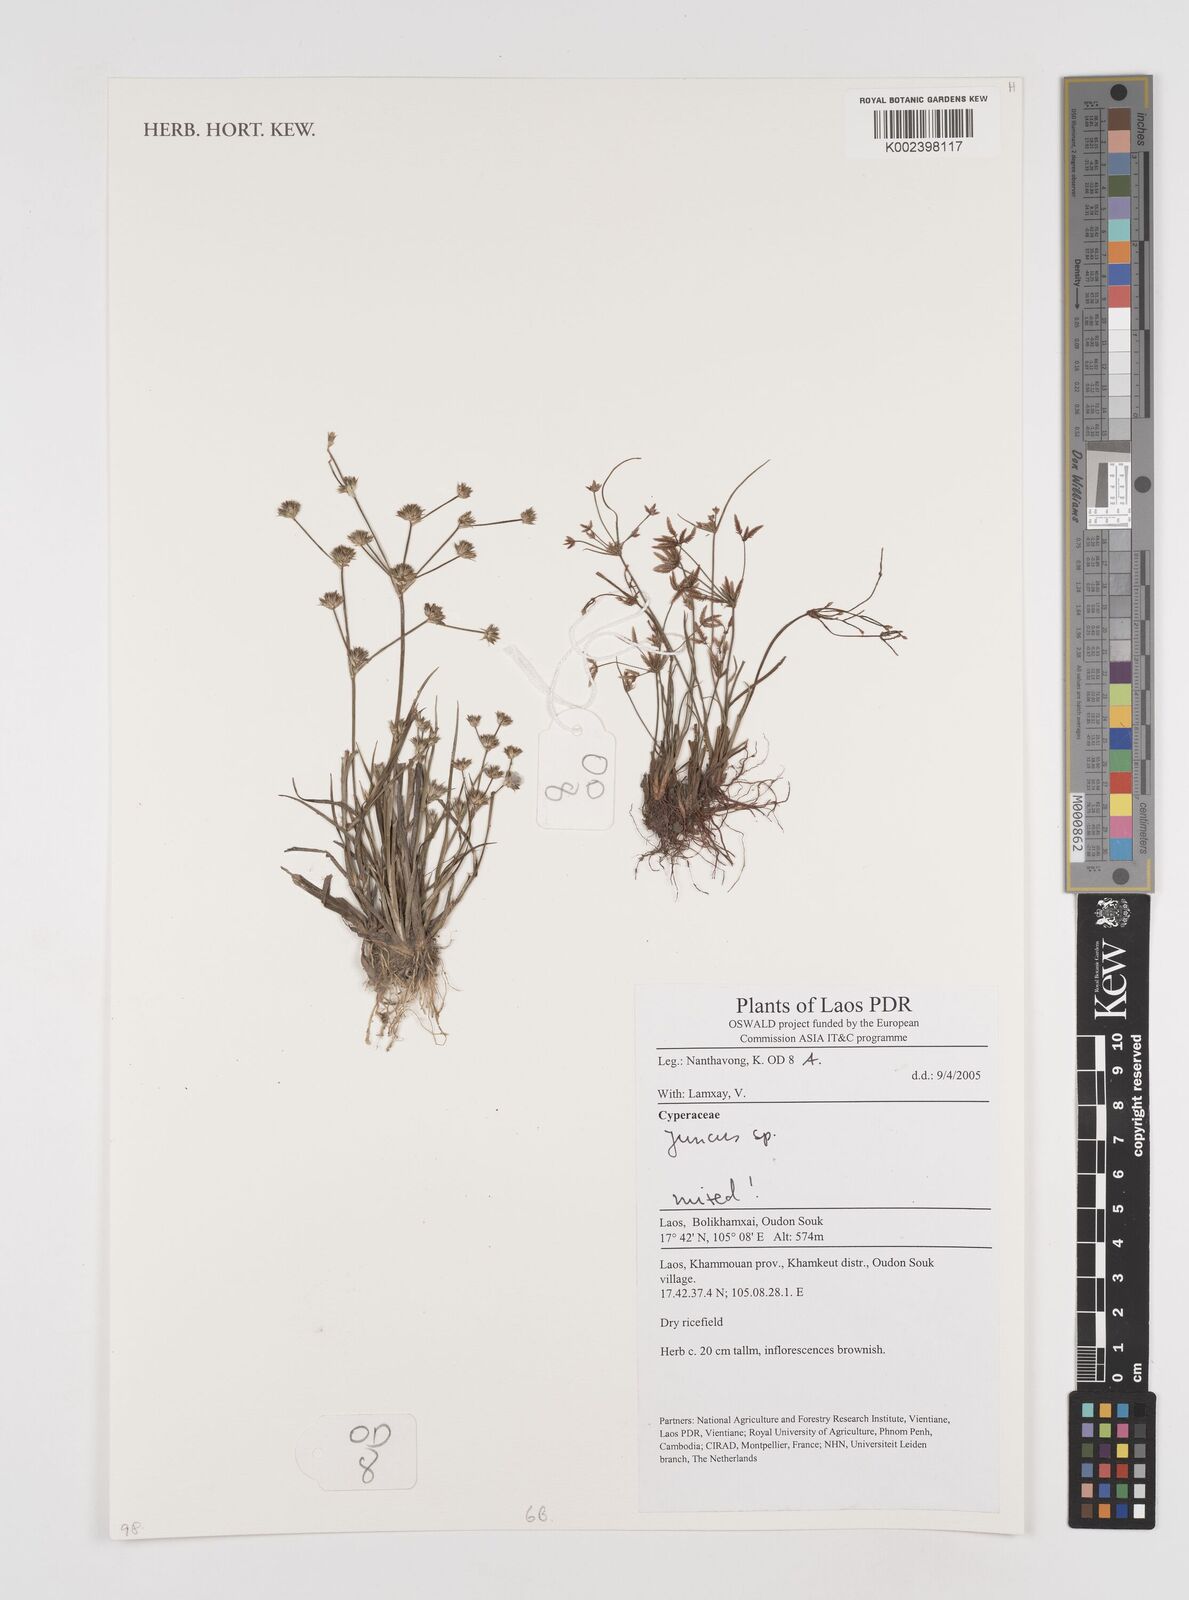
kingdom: Plantae
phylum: Tracheophyta
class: Liliopsida
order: Poales
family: Juncaceae
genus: Juncus
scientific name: Juncus
